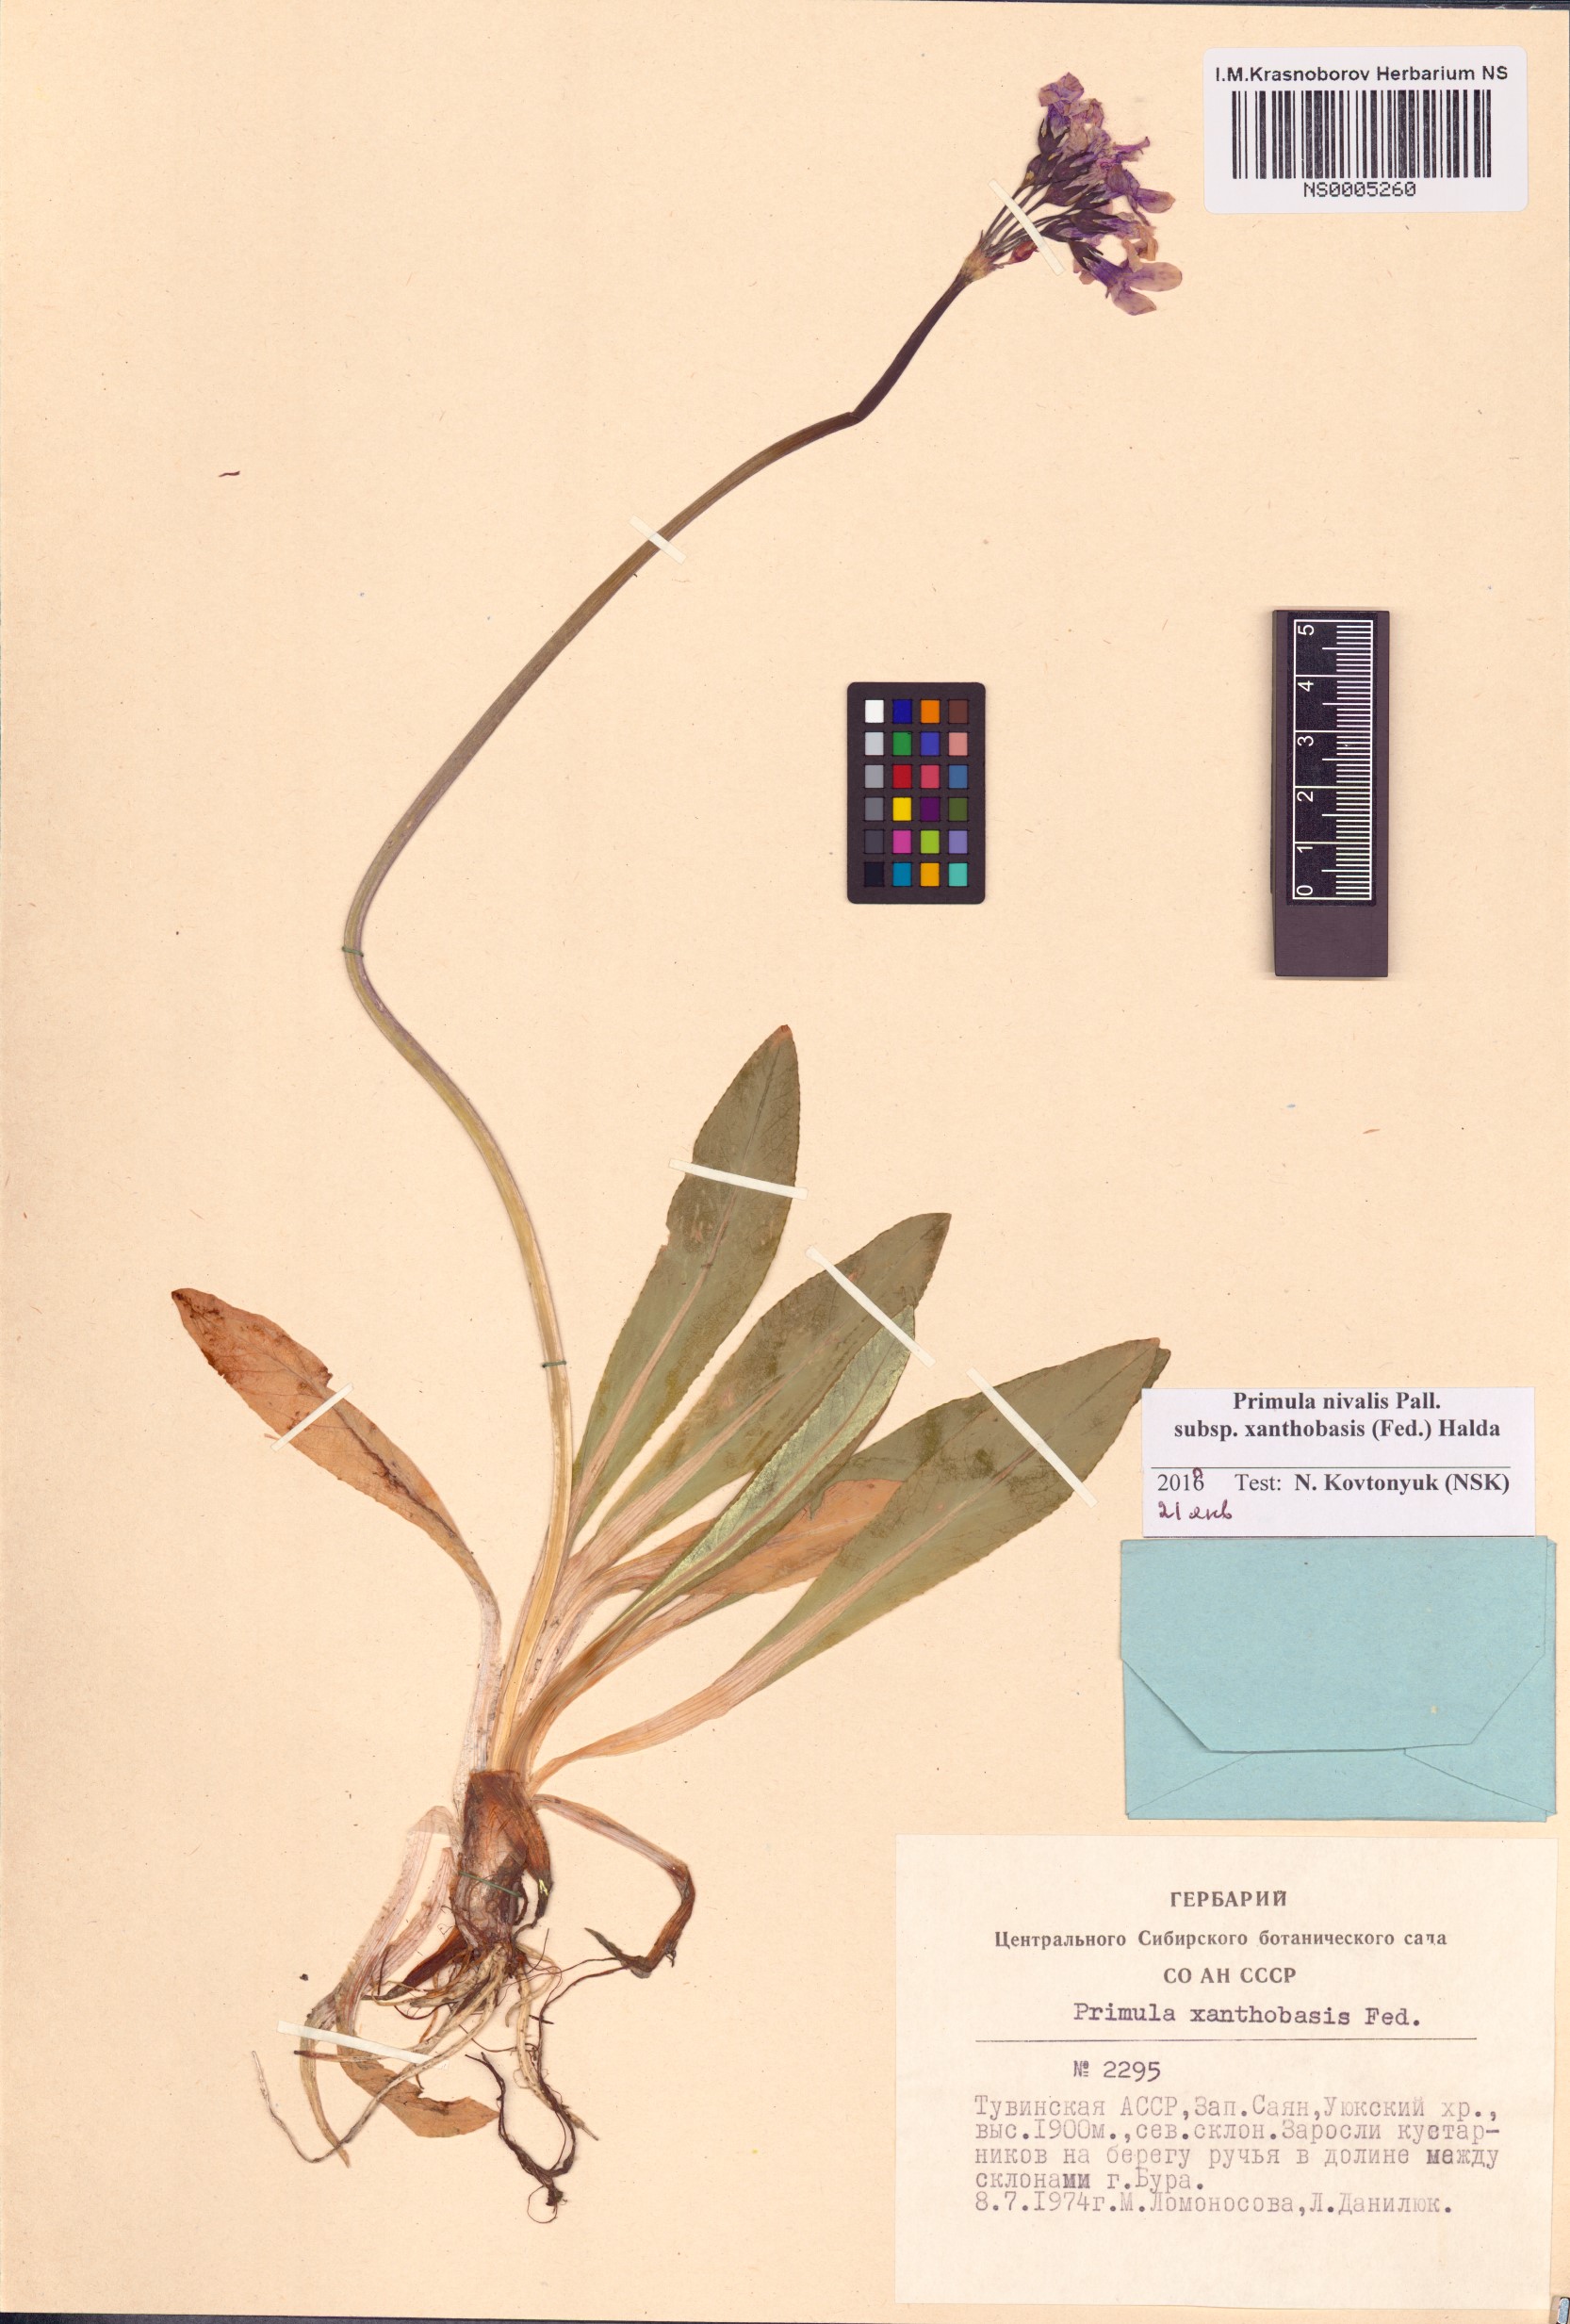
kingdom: Plantae
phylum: Tracheophyta
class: Magnoliopsida
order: Ericales
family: Primulaceae
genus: Primula
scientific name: Primula nivalis
